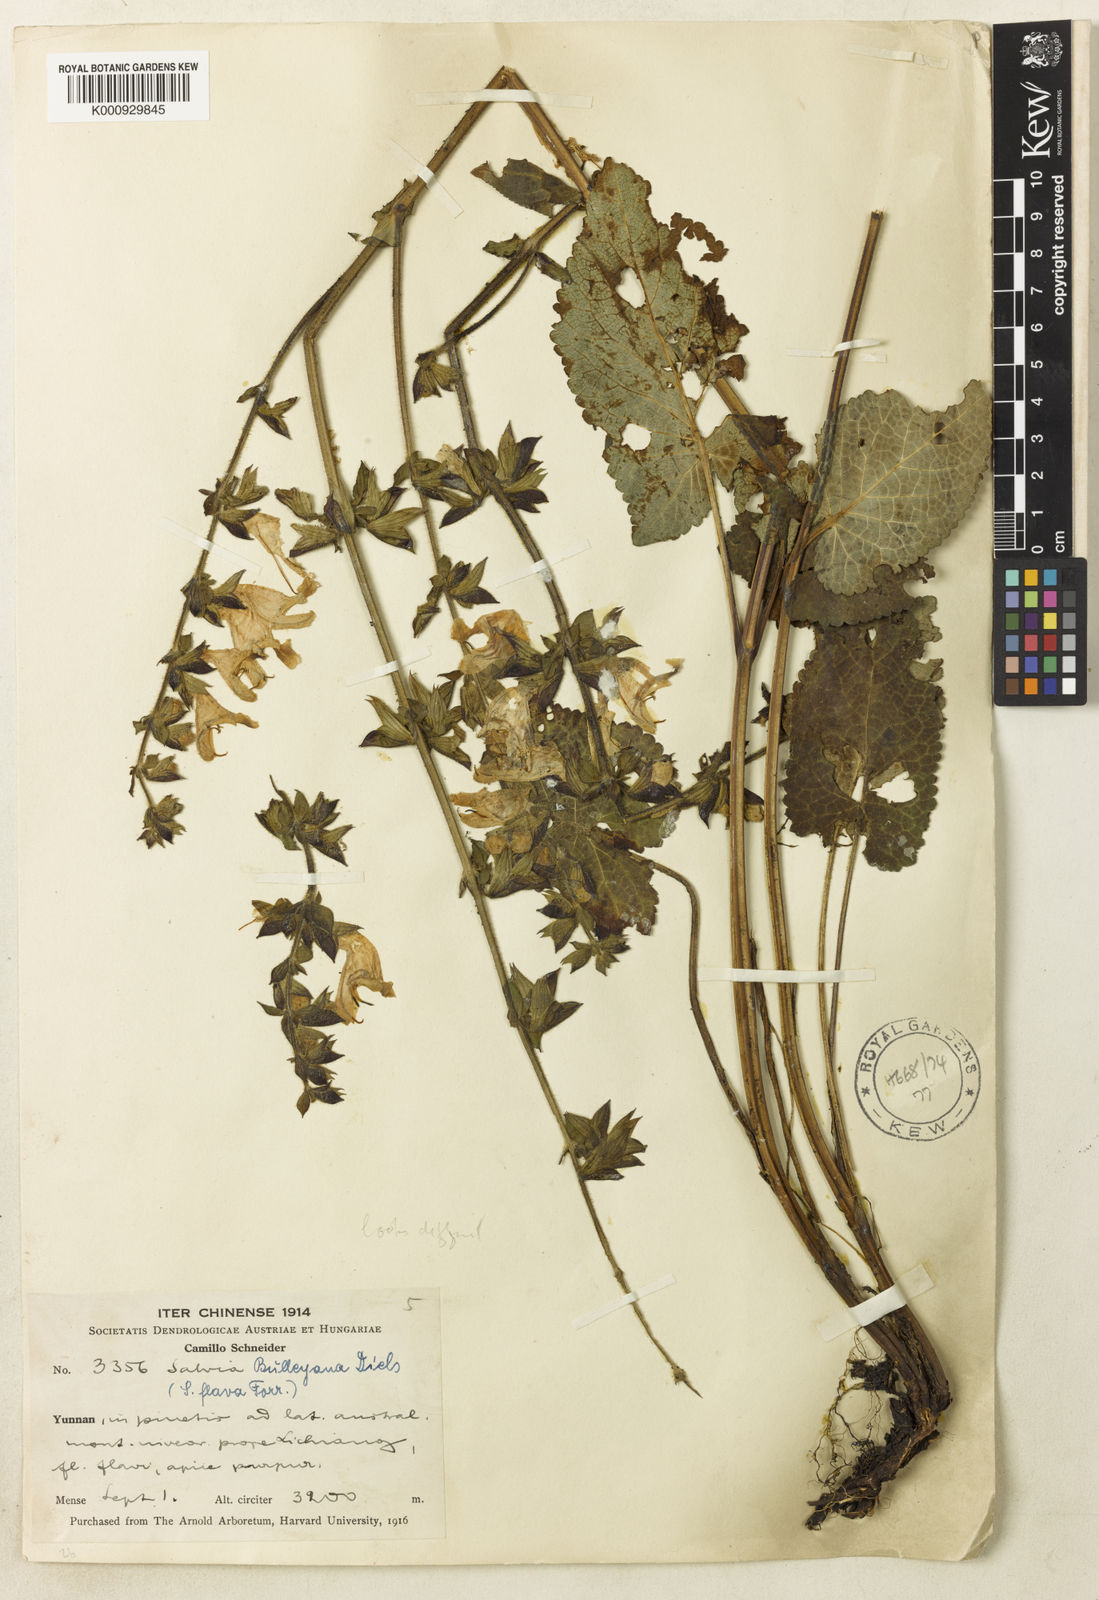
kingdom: Plantae
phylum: Tracheophyta
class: Magnoliopsida
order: Lamiales
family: Lamiaceae
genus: Salvia
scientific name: Salvia flava
